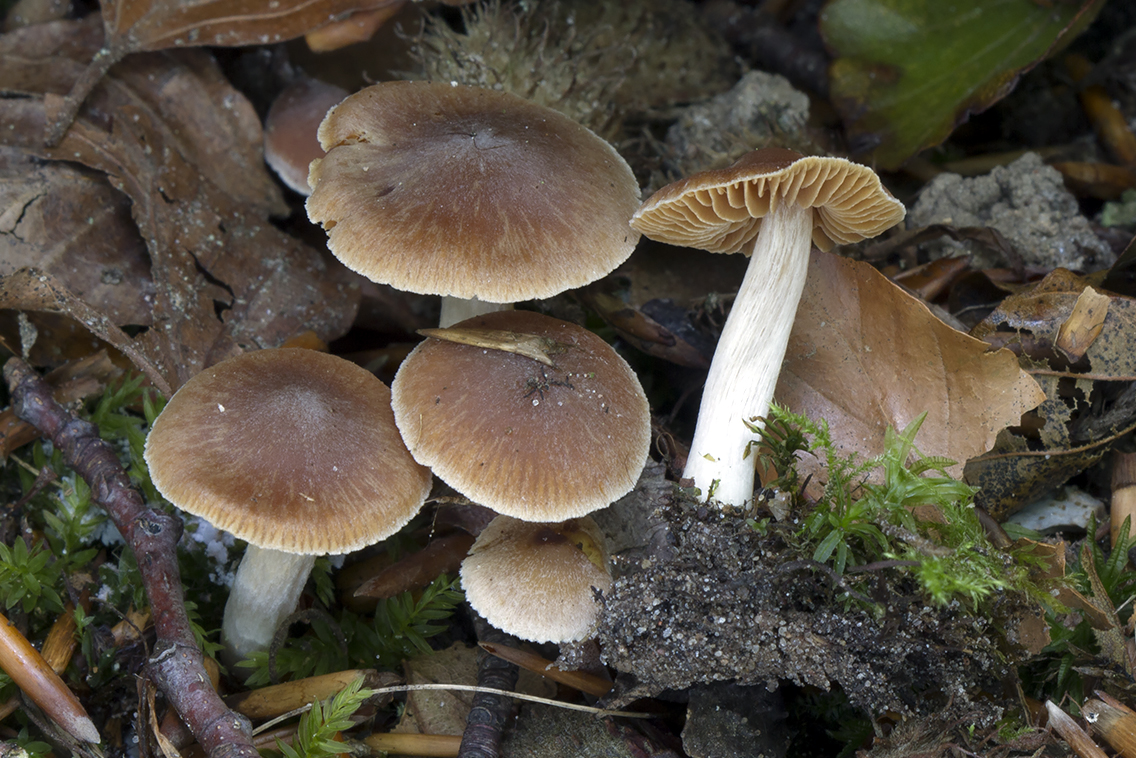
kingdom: Fungi
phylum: Basidiomycota
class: Agaricomycetes
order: Agaricales
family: Cortinariaceae
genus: Cortinarius
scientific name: Cortinarius
